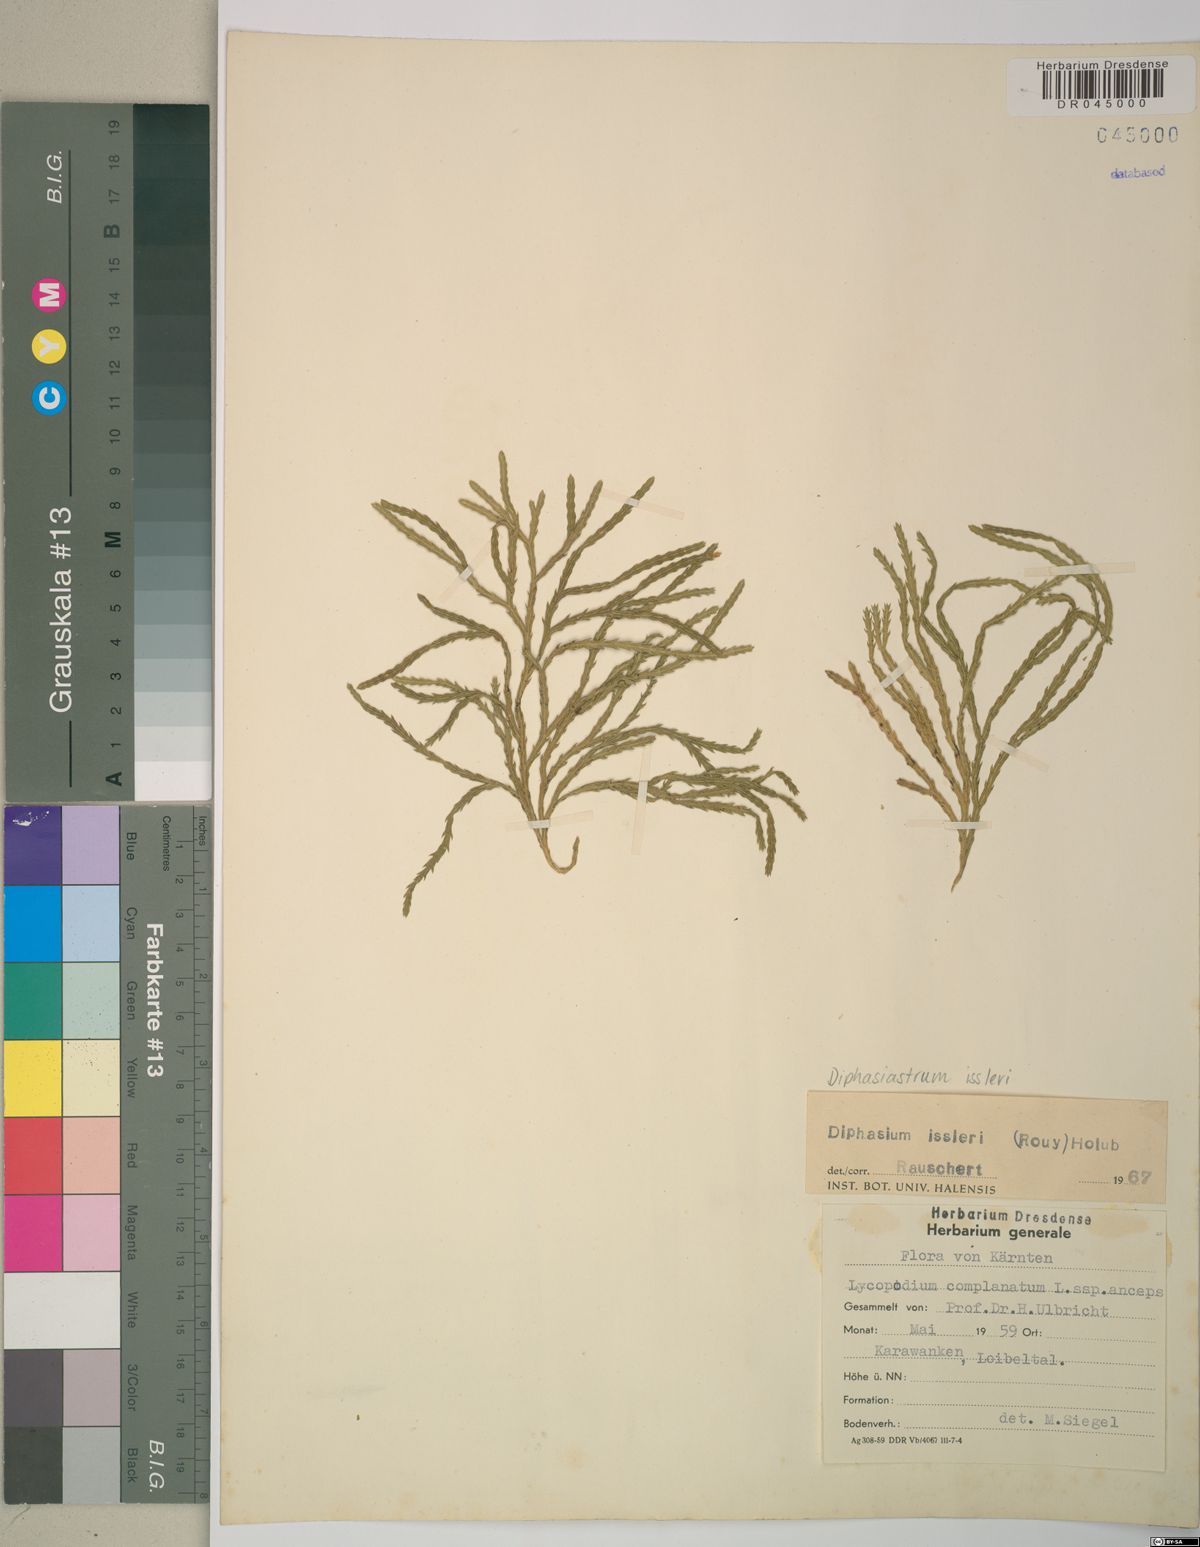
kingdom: Plantae
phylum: Tracheophyta
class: Lycopodiopsida
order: Lycopodiales
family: Lycopodiaceae
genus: Diphasiastrum
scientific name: Diphasiastrum issleri
